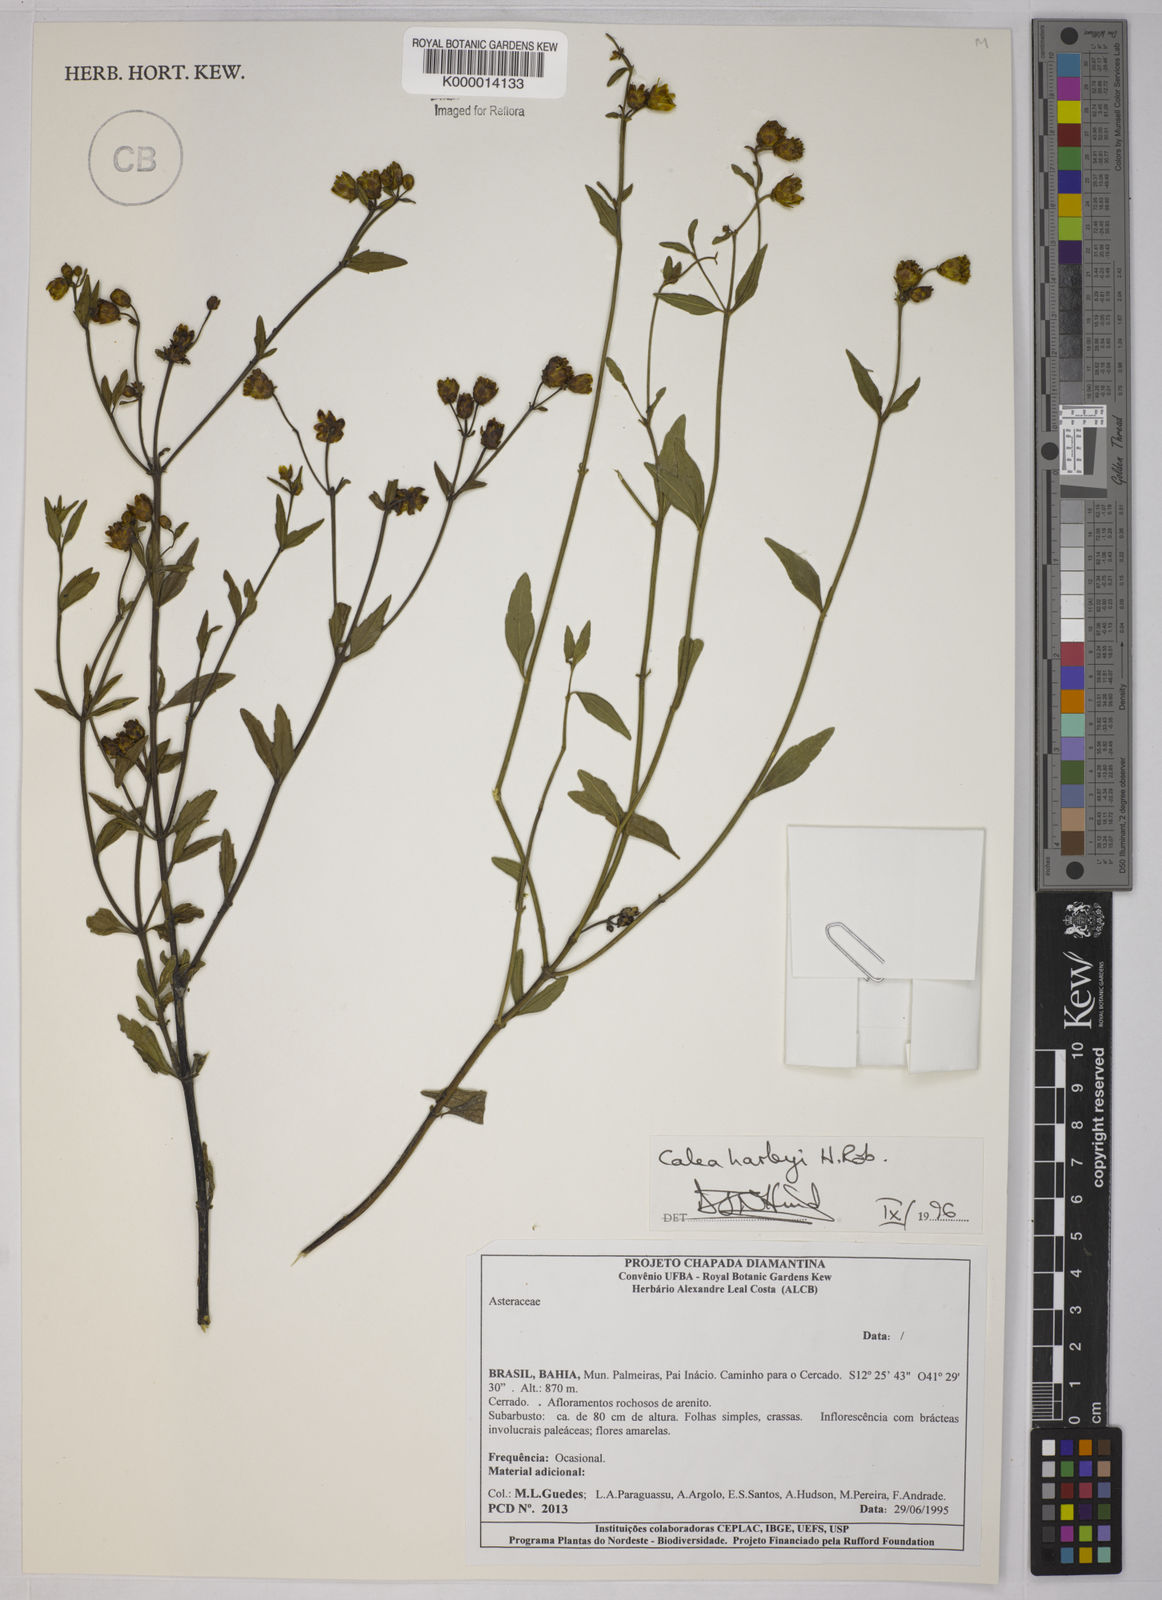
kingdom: Plantae
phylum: Tracheophyta
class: Magnoliopsida
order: Asterales
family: Asteraceae
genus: Calea
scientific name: Calea harleyi
